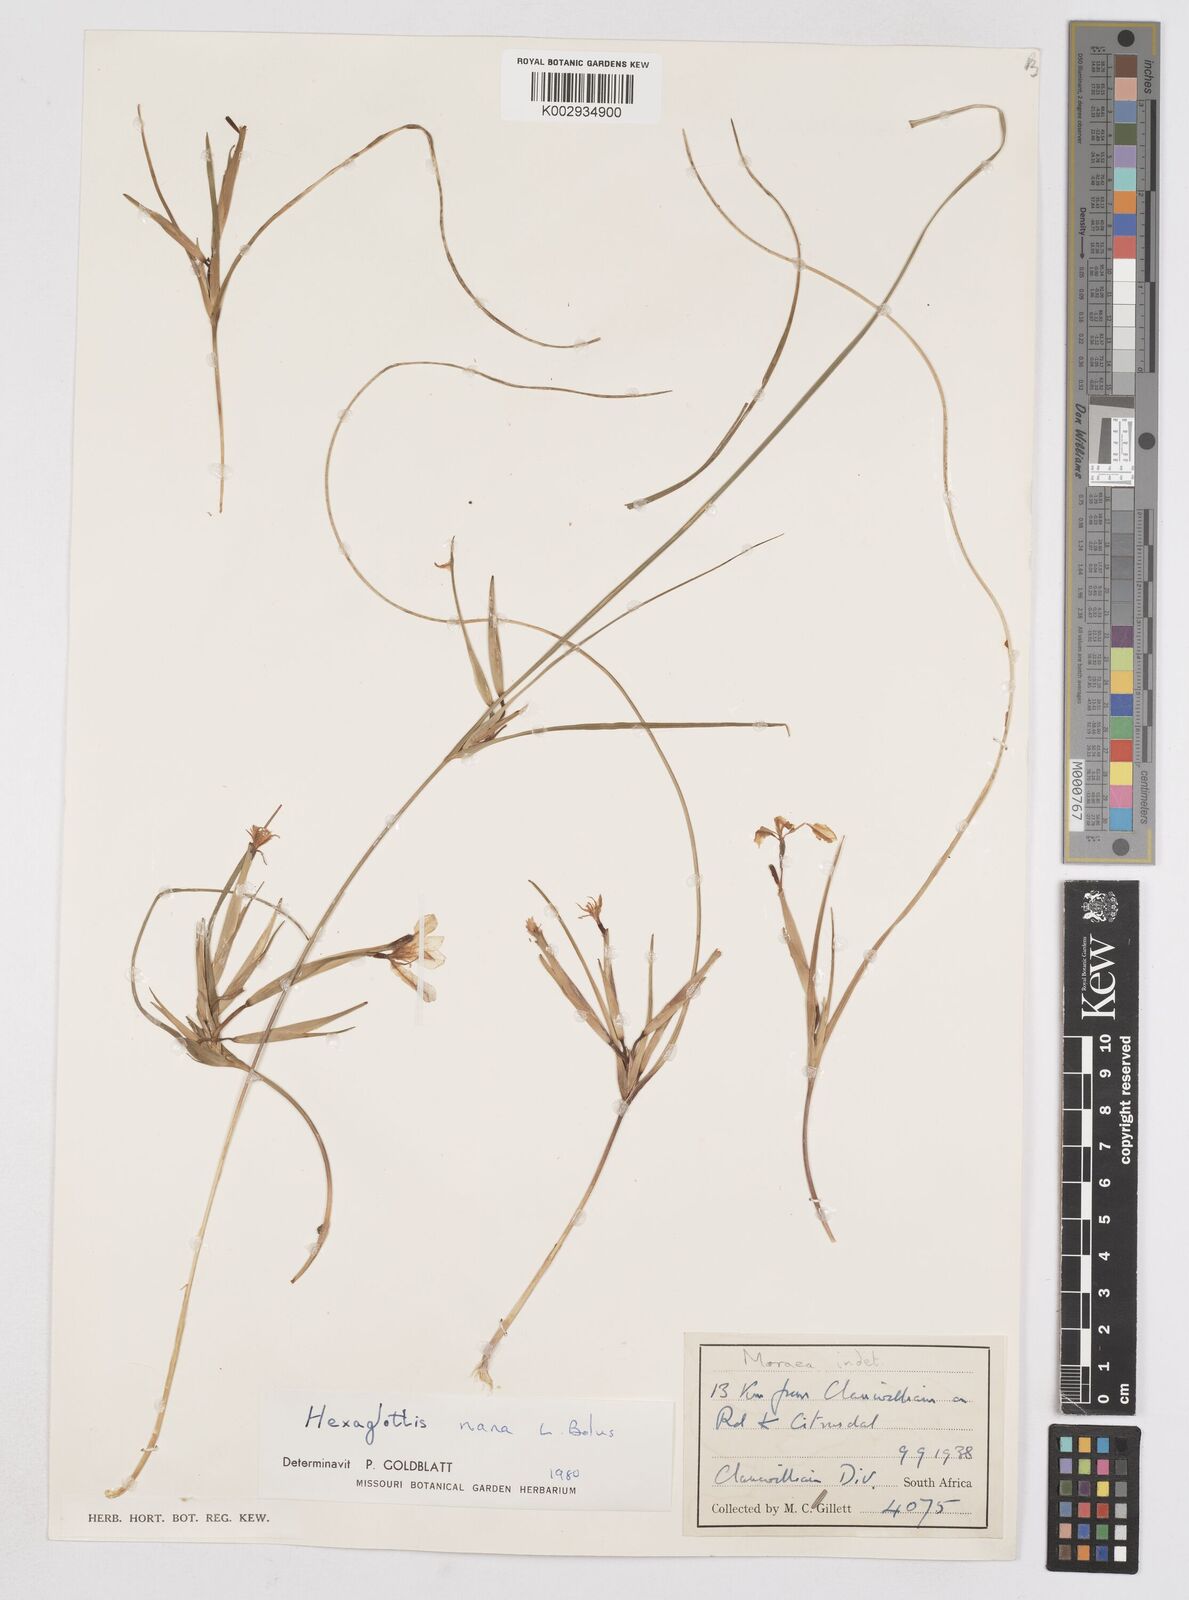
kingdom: Plantae
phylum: Tracheophyta
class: Liliopsida
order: Asparagales
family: Iridaceae
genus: Moraea
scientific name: Moraea nana
